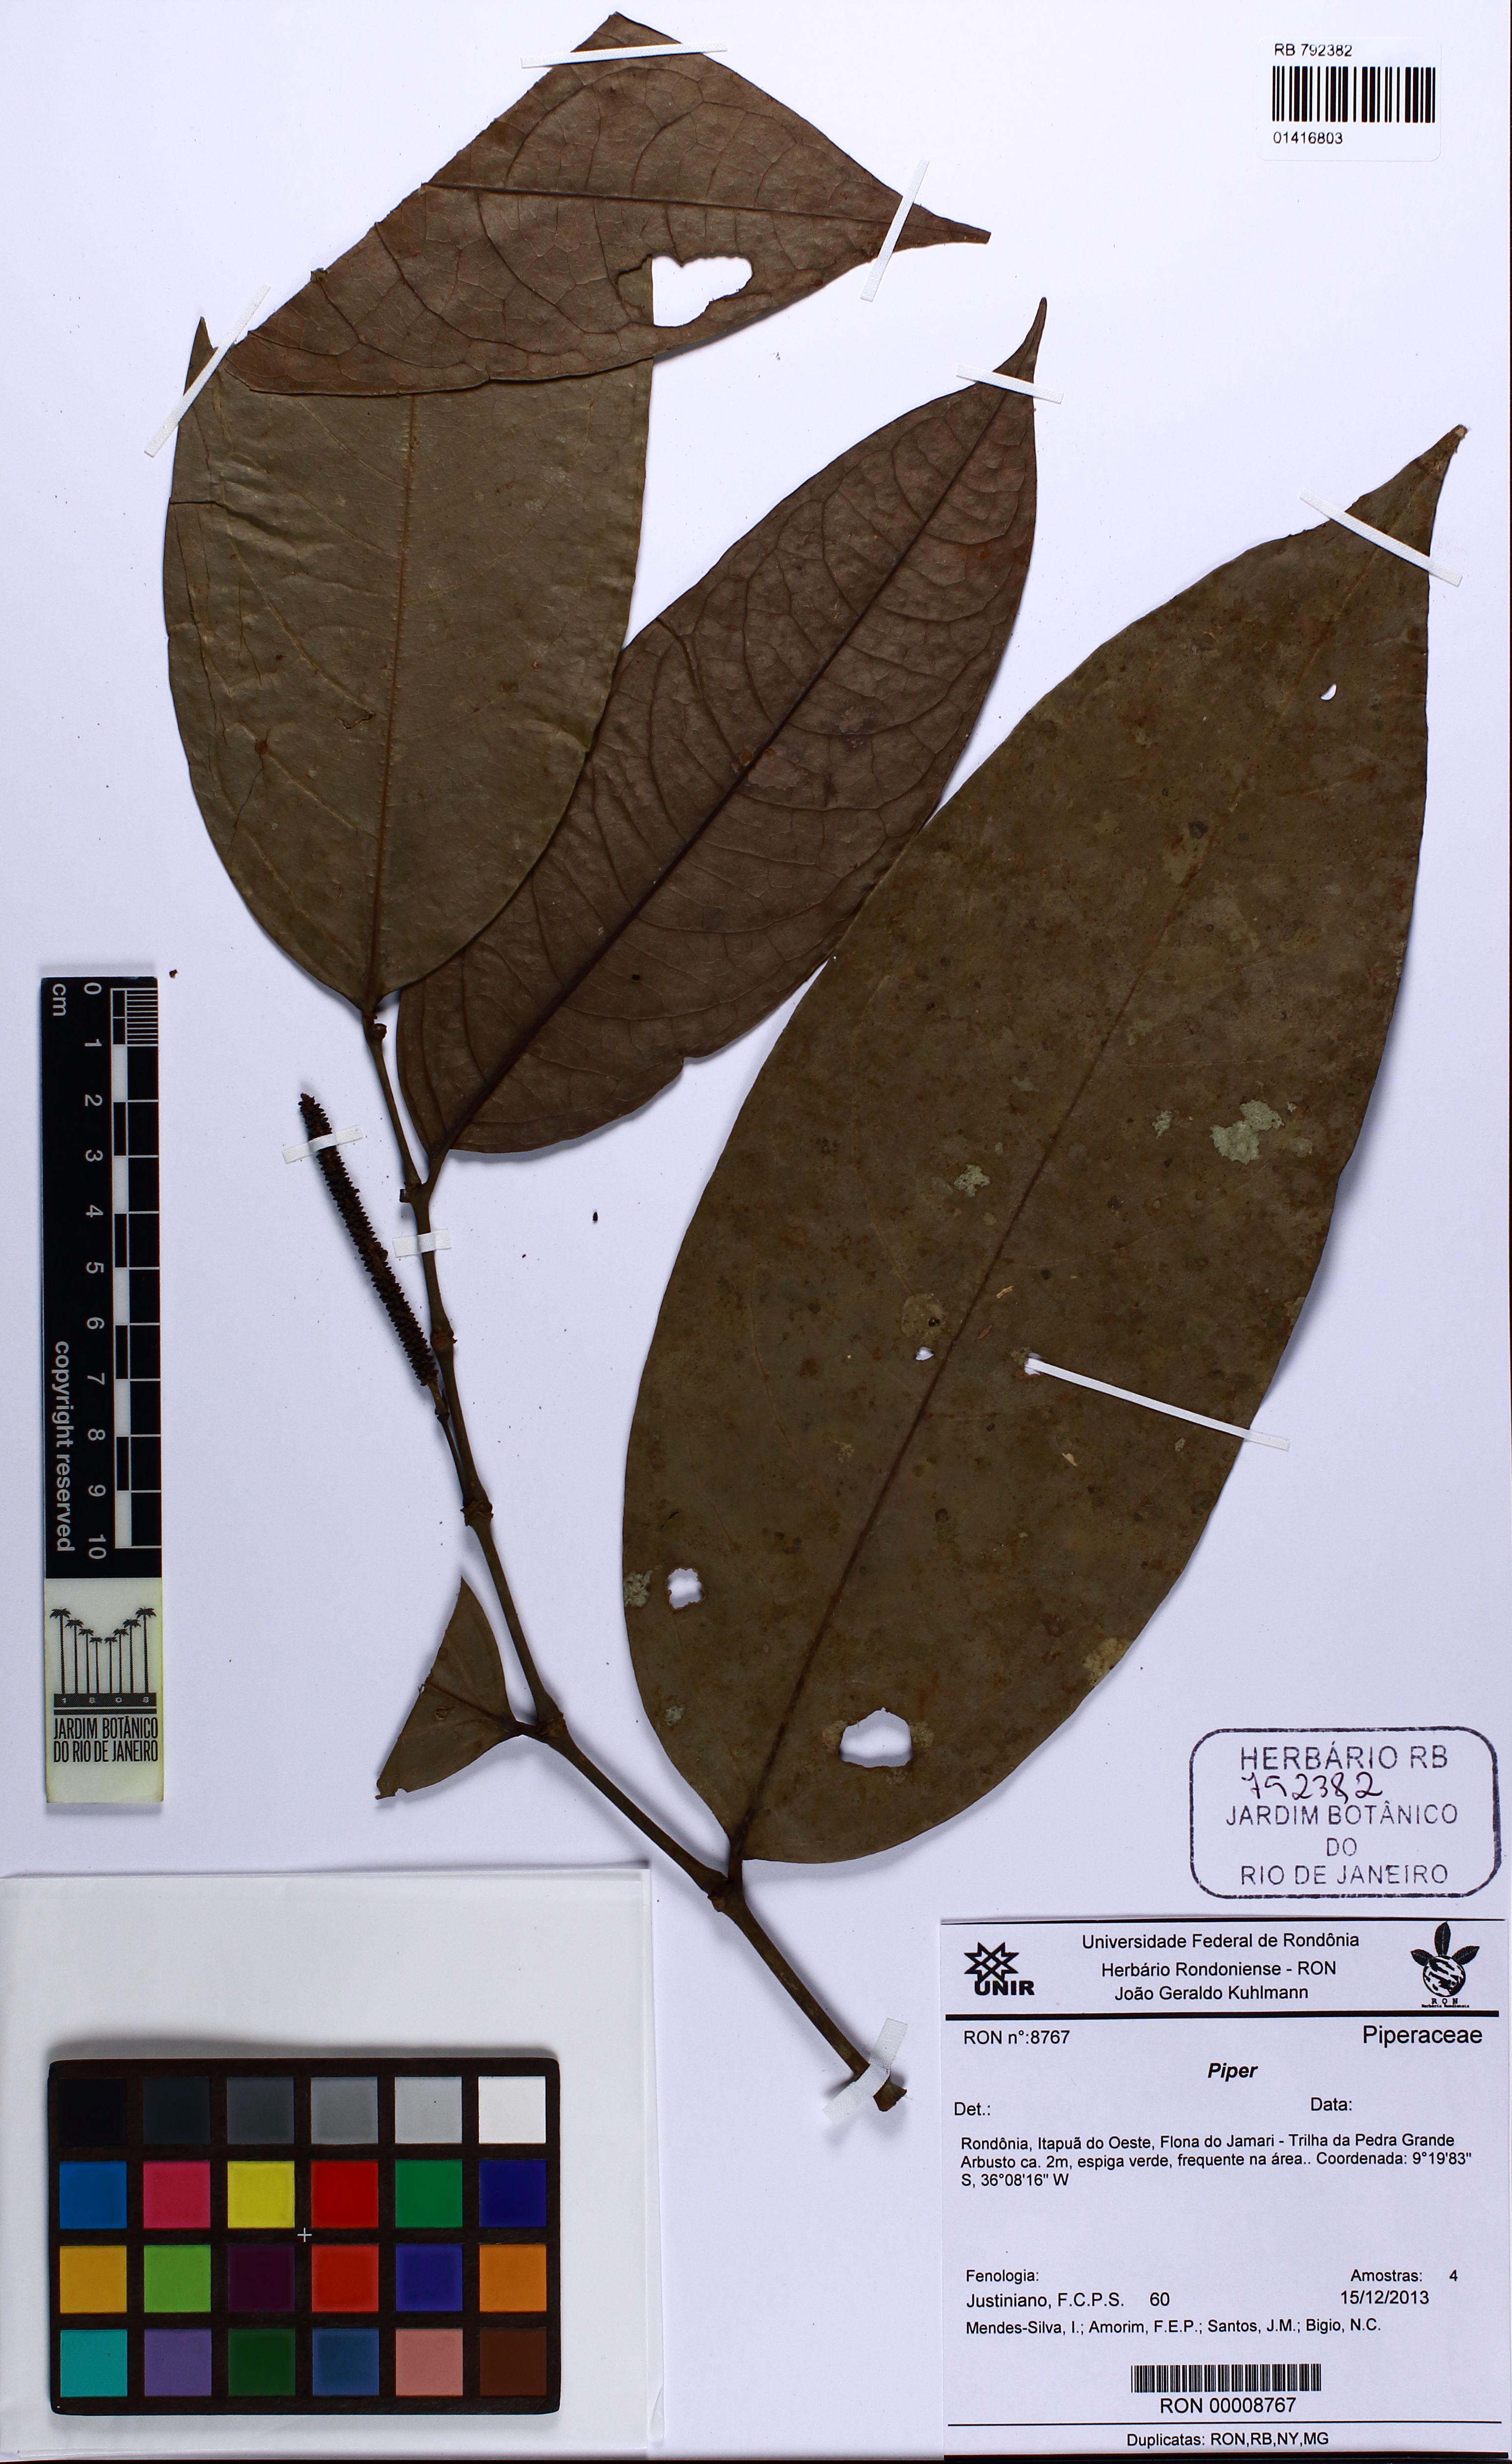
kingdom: Plantae
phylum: Tracheophyta
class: Magnoliopsida
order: Piperales
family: Piperaceae
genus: Piper
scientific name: Piper
